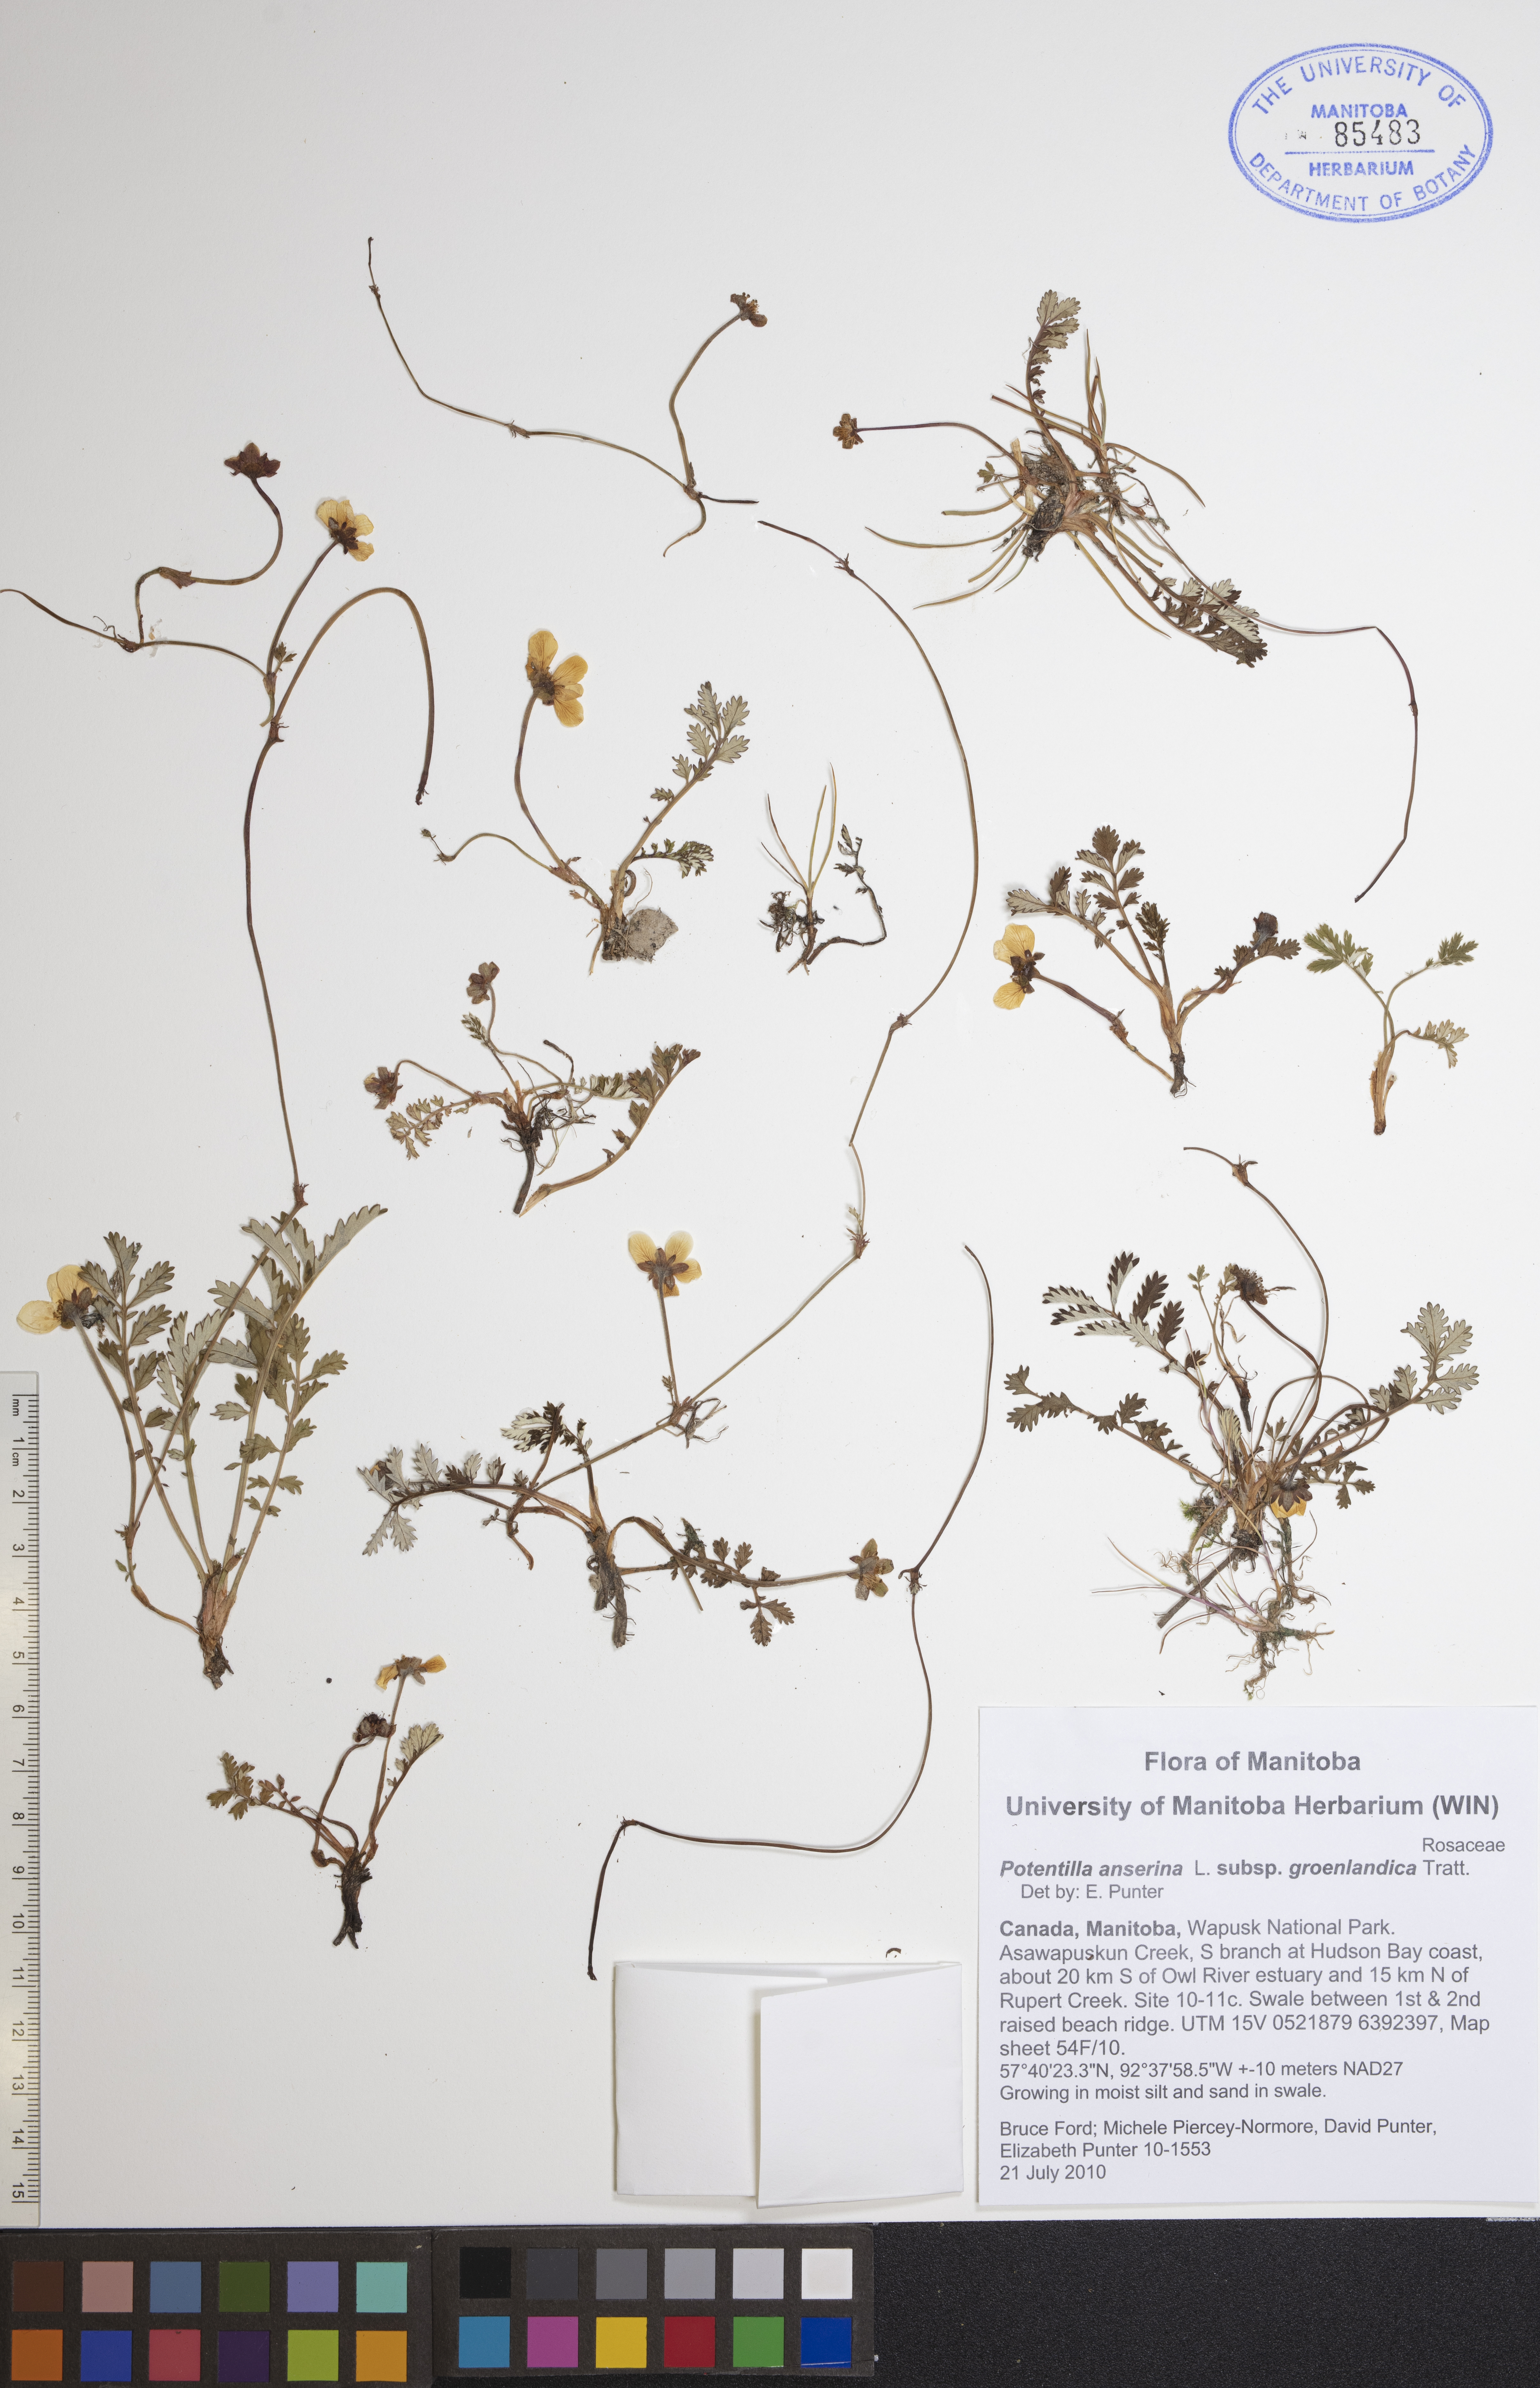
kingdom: Plantae
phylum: Tracheophyta
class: Magnoliopsida
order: Rosales
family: Rosaceae
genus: Argentina
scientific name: Argentina anserina
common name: Common silverweed
